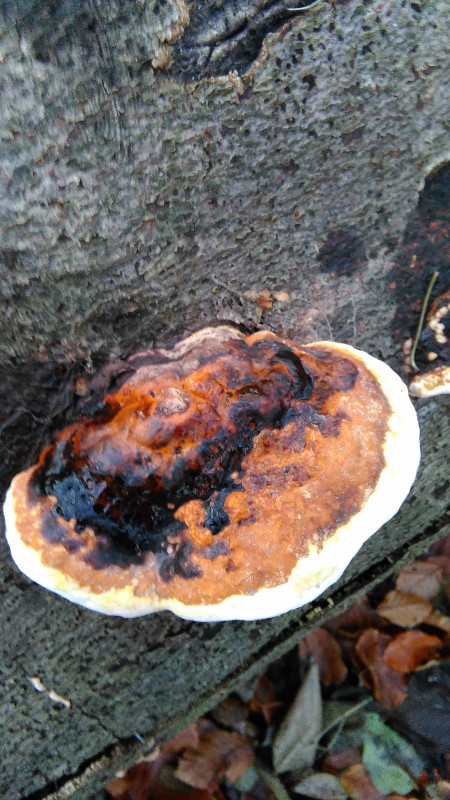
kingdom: Fungi
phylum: Basidiomycota
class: Agaricomycetes
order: Polyporales
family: Fomitopsidaceae
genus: Fomitopsis
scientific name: Fomitopsis pinicola
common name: randbæltet hovporesvamp
